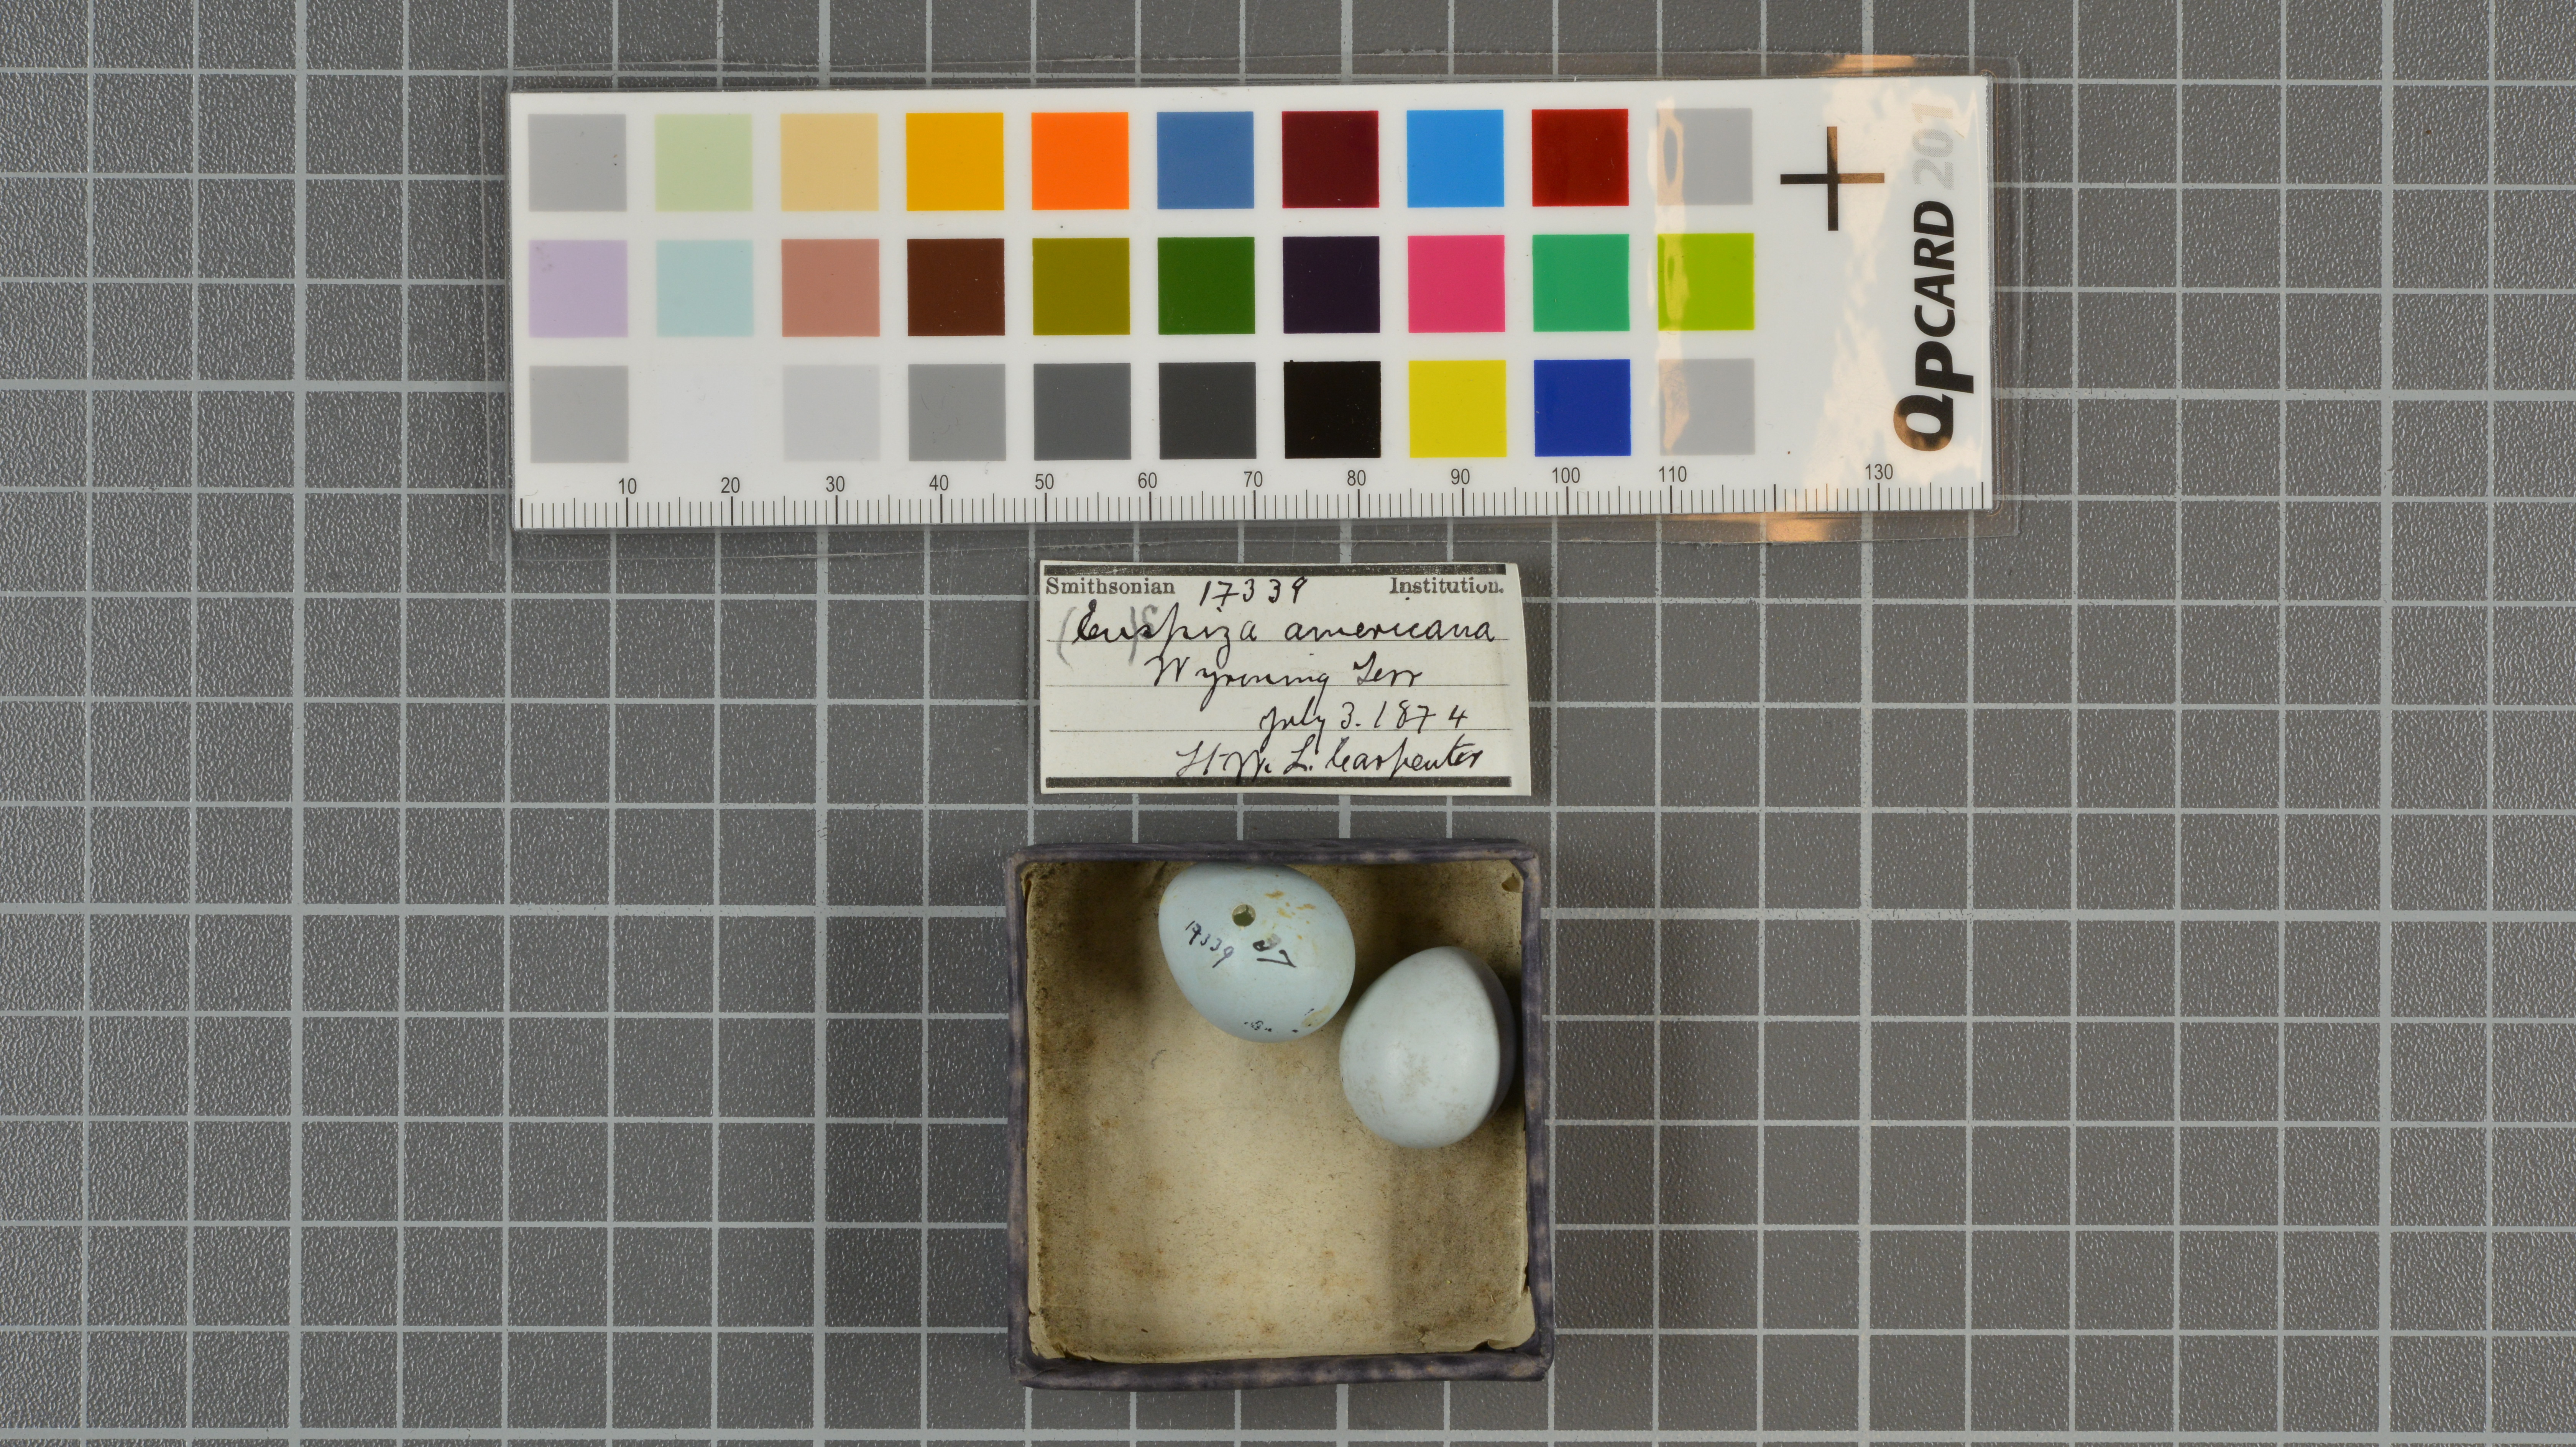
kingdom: Animalia
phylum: Chordata
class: Aves
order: Passeriformes
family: Cardinalidae
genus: Spiza
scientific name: Spiza americana
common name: Dickcissel
